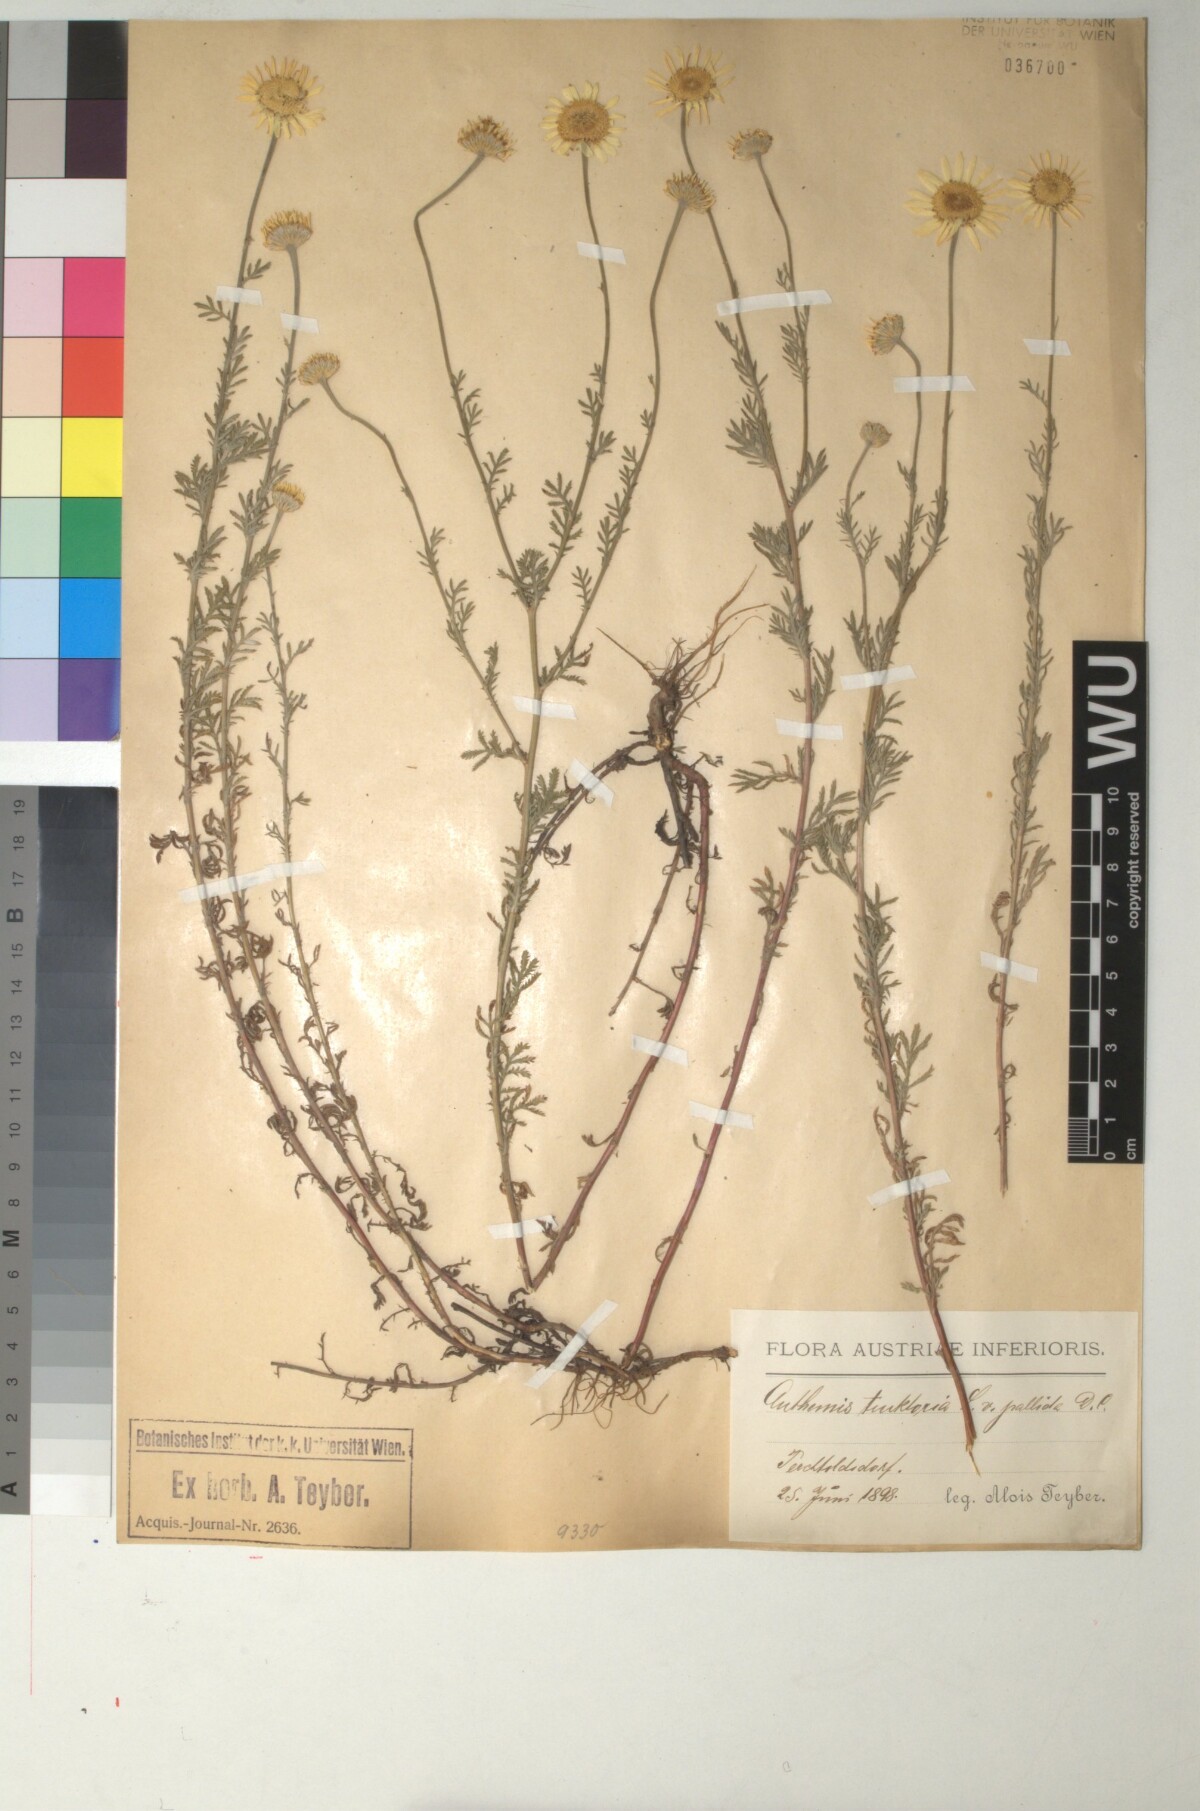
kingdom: Plantae
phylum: Tracheophyta
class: Magnoliopsida
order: Asterales
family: Asteraceae
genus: Cota
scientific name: Cota tinctoria
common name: Golden chamomile
